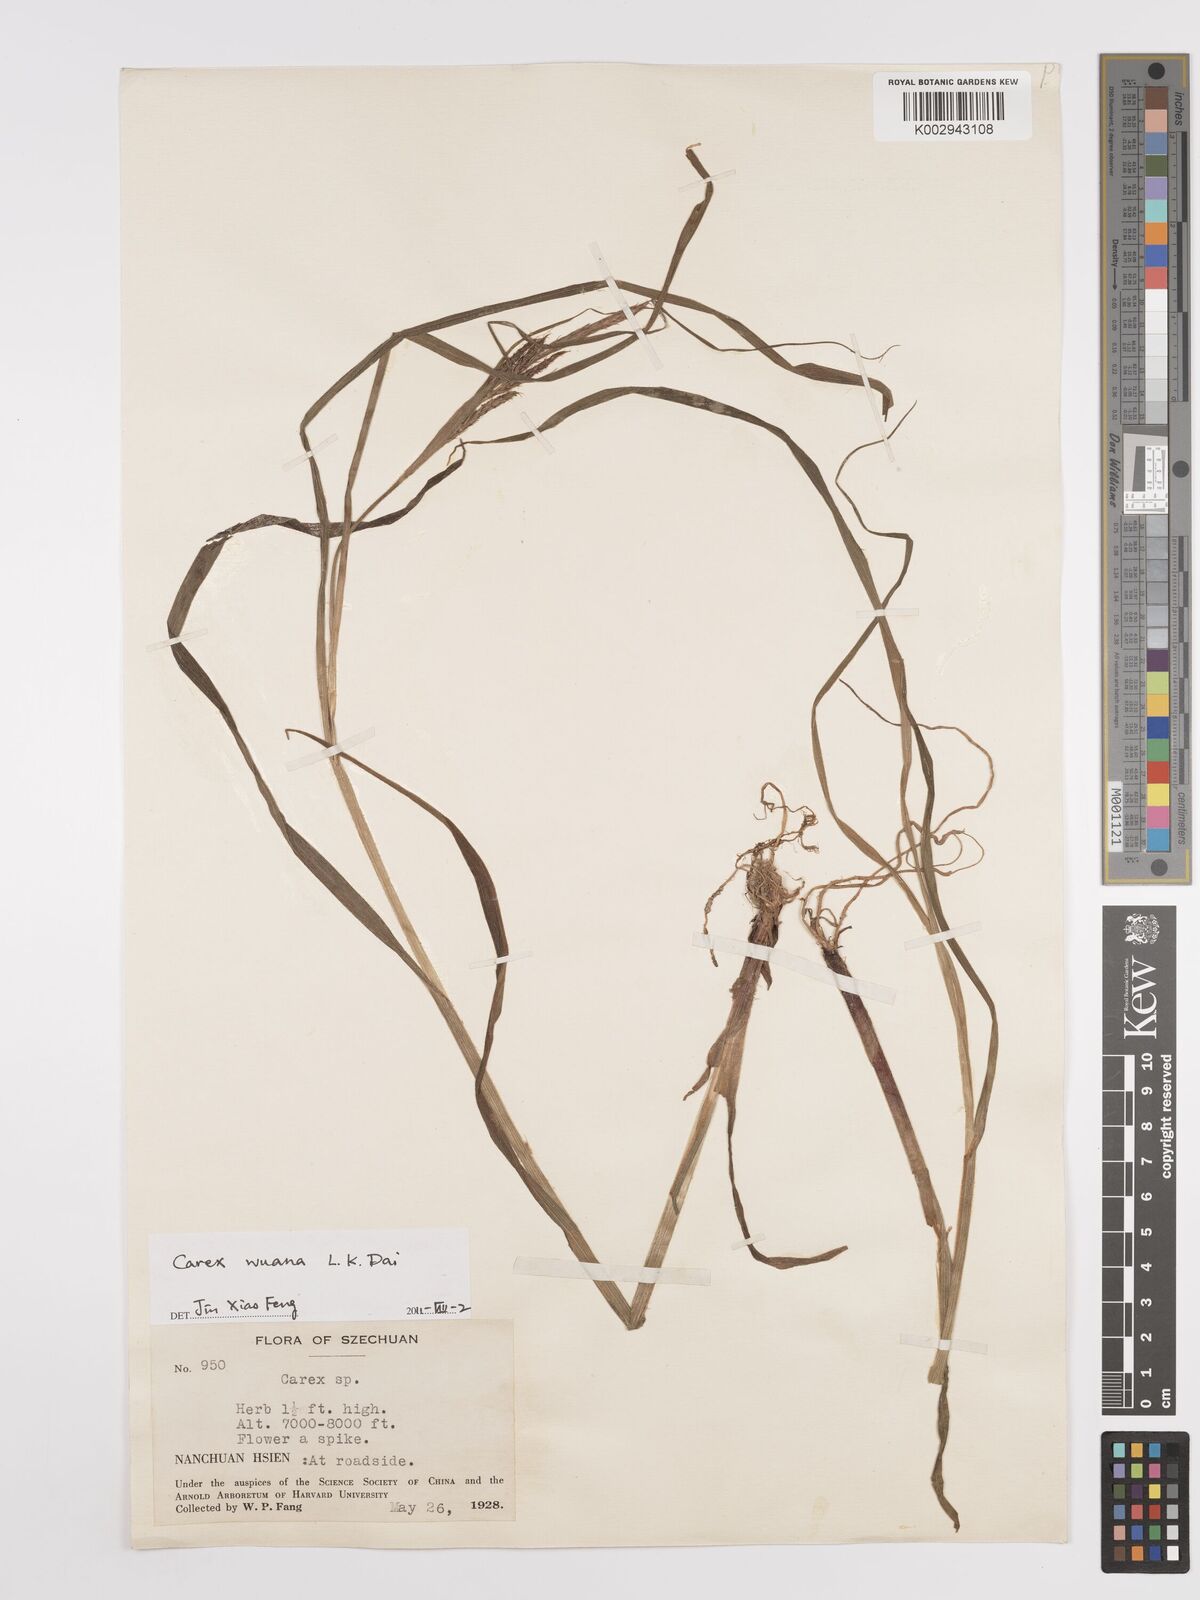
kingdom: Plantae
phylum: Tracheophyta
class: Liliopsida
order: Poales
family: Cyperaceae
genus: Carex
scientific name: Carex
